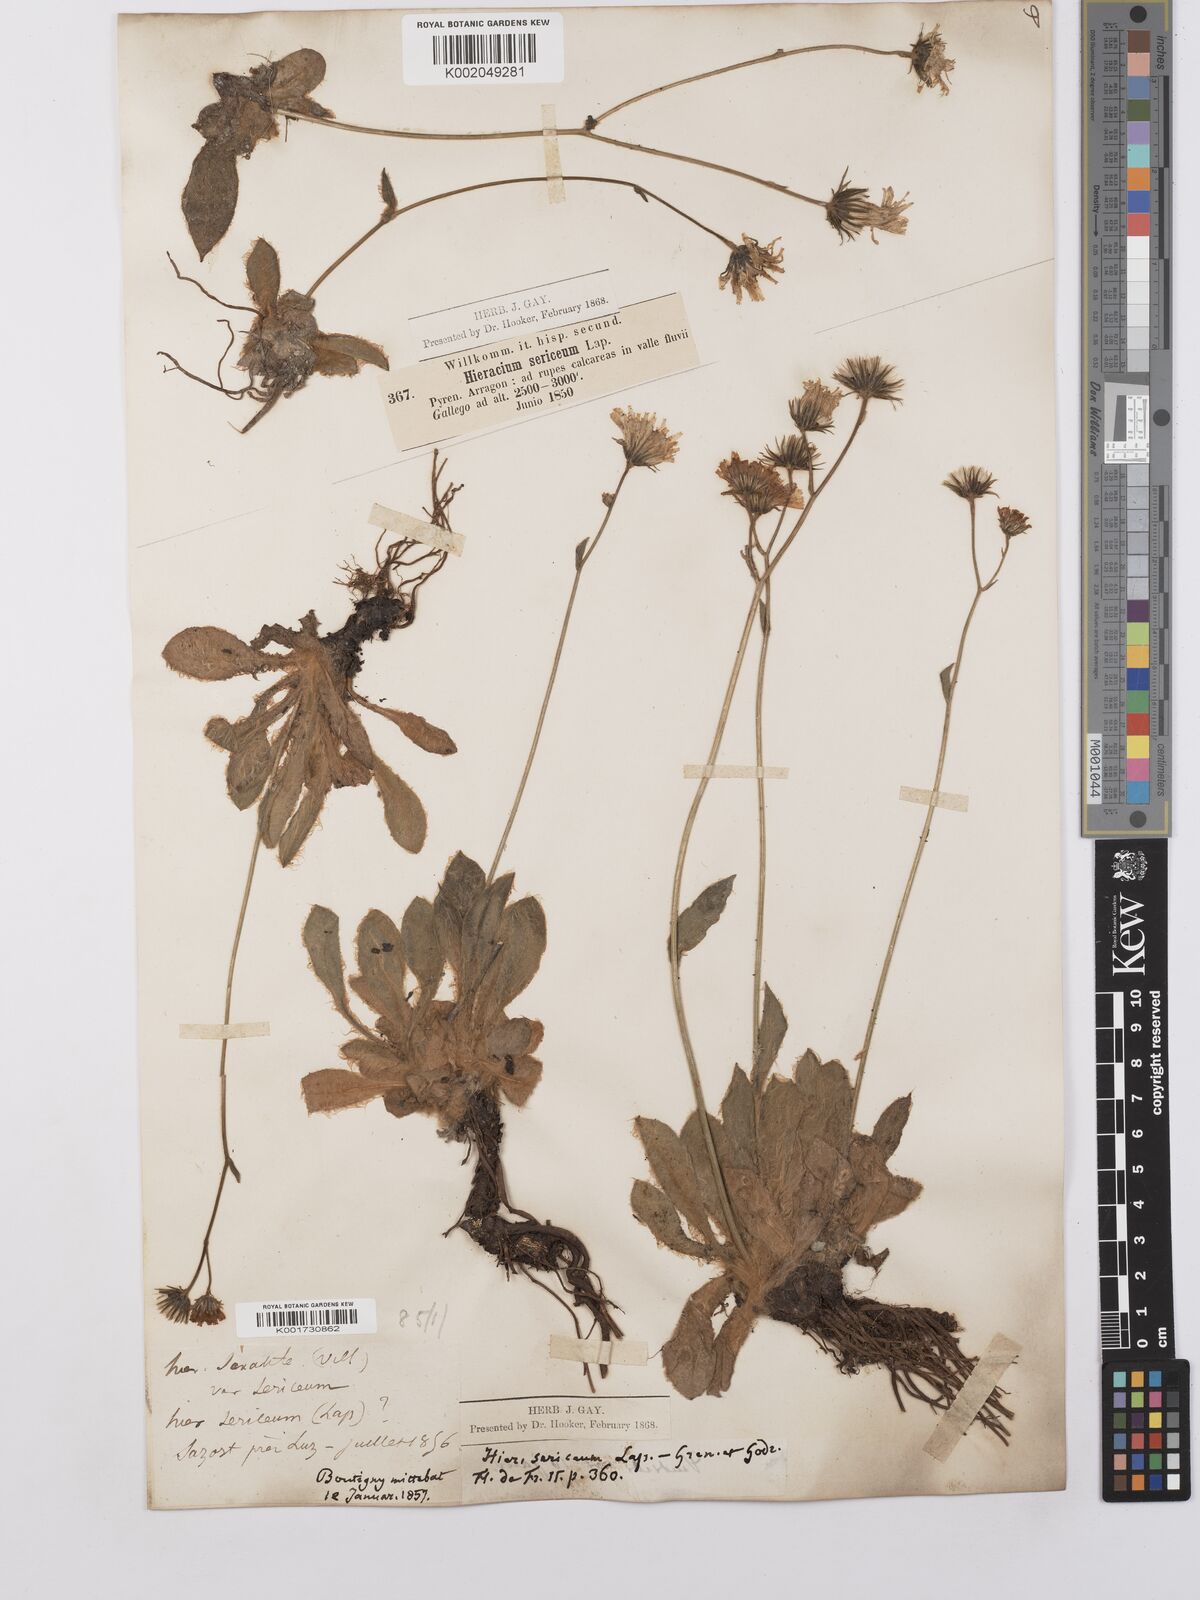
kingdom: Plantae
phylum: Tracheophyta
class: Magnoliopsida
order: Asterales
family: Asteraceae
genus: Hieracium
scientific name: Hieracium
